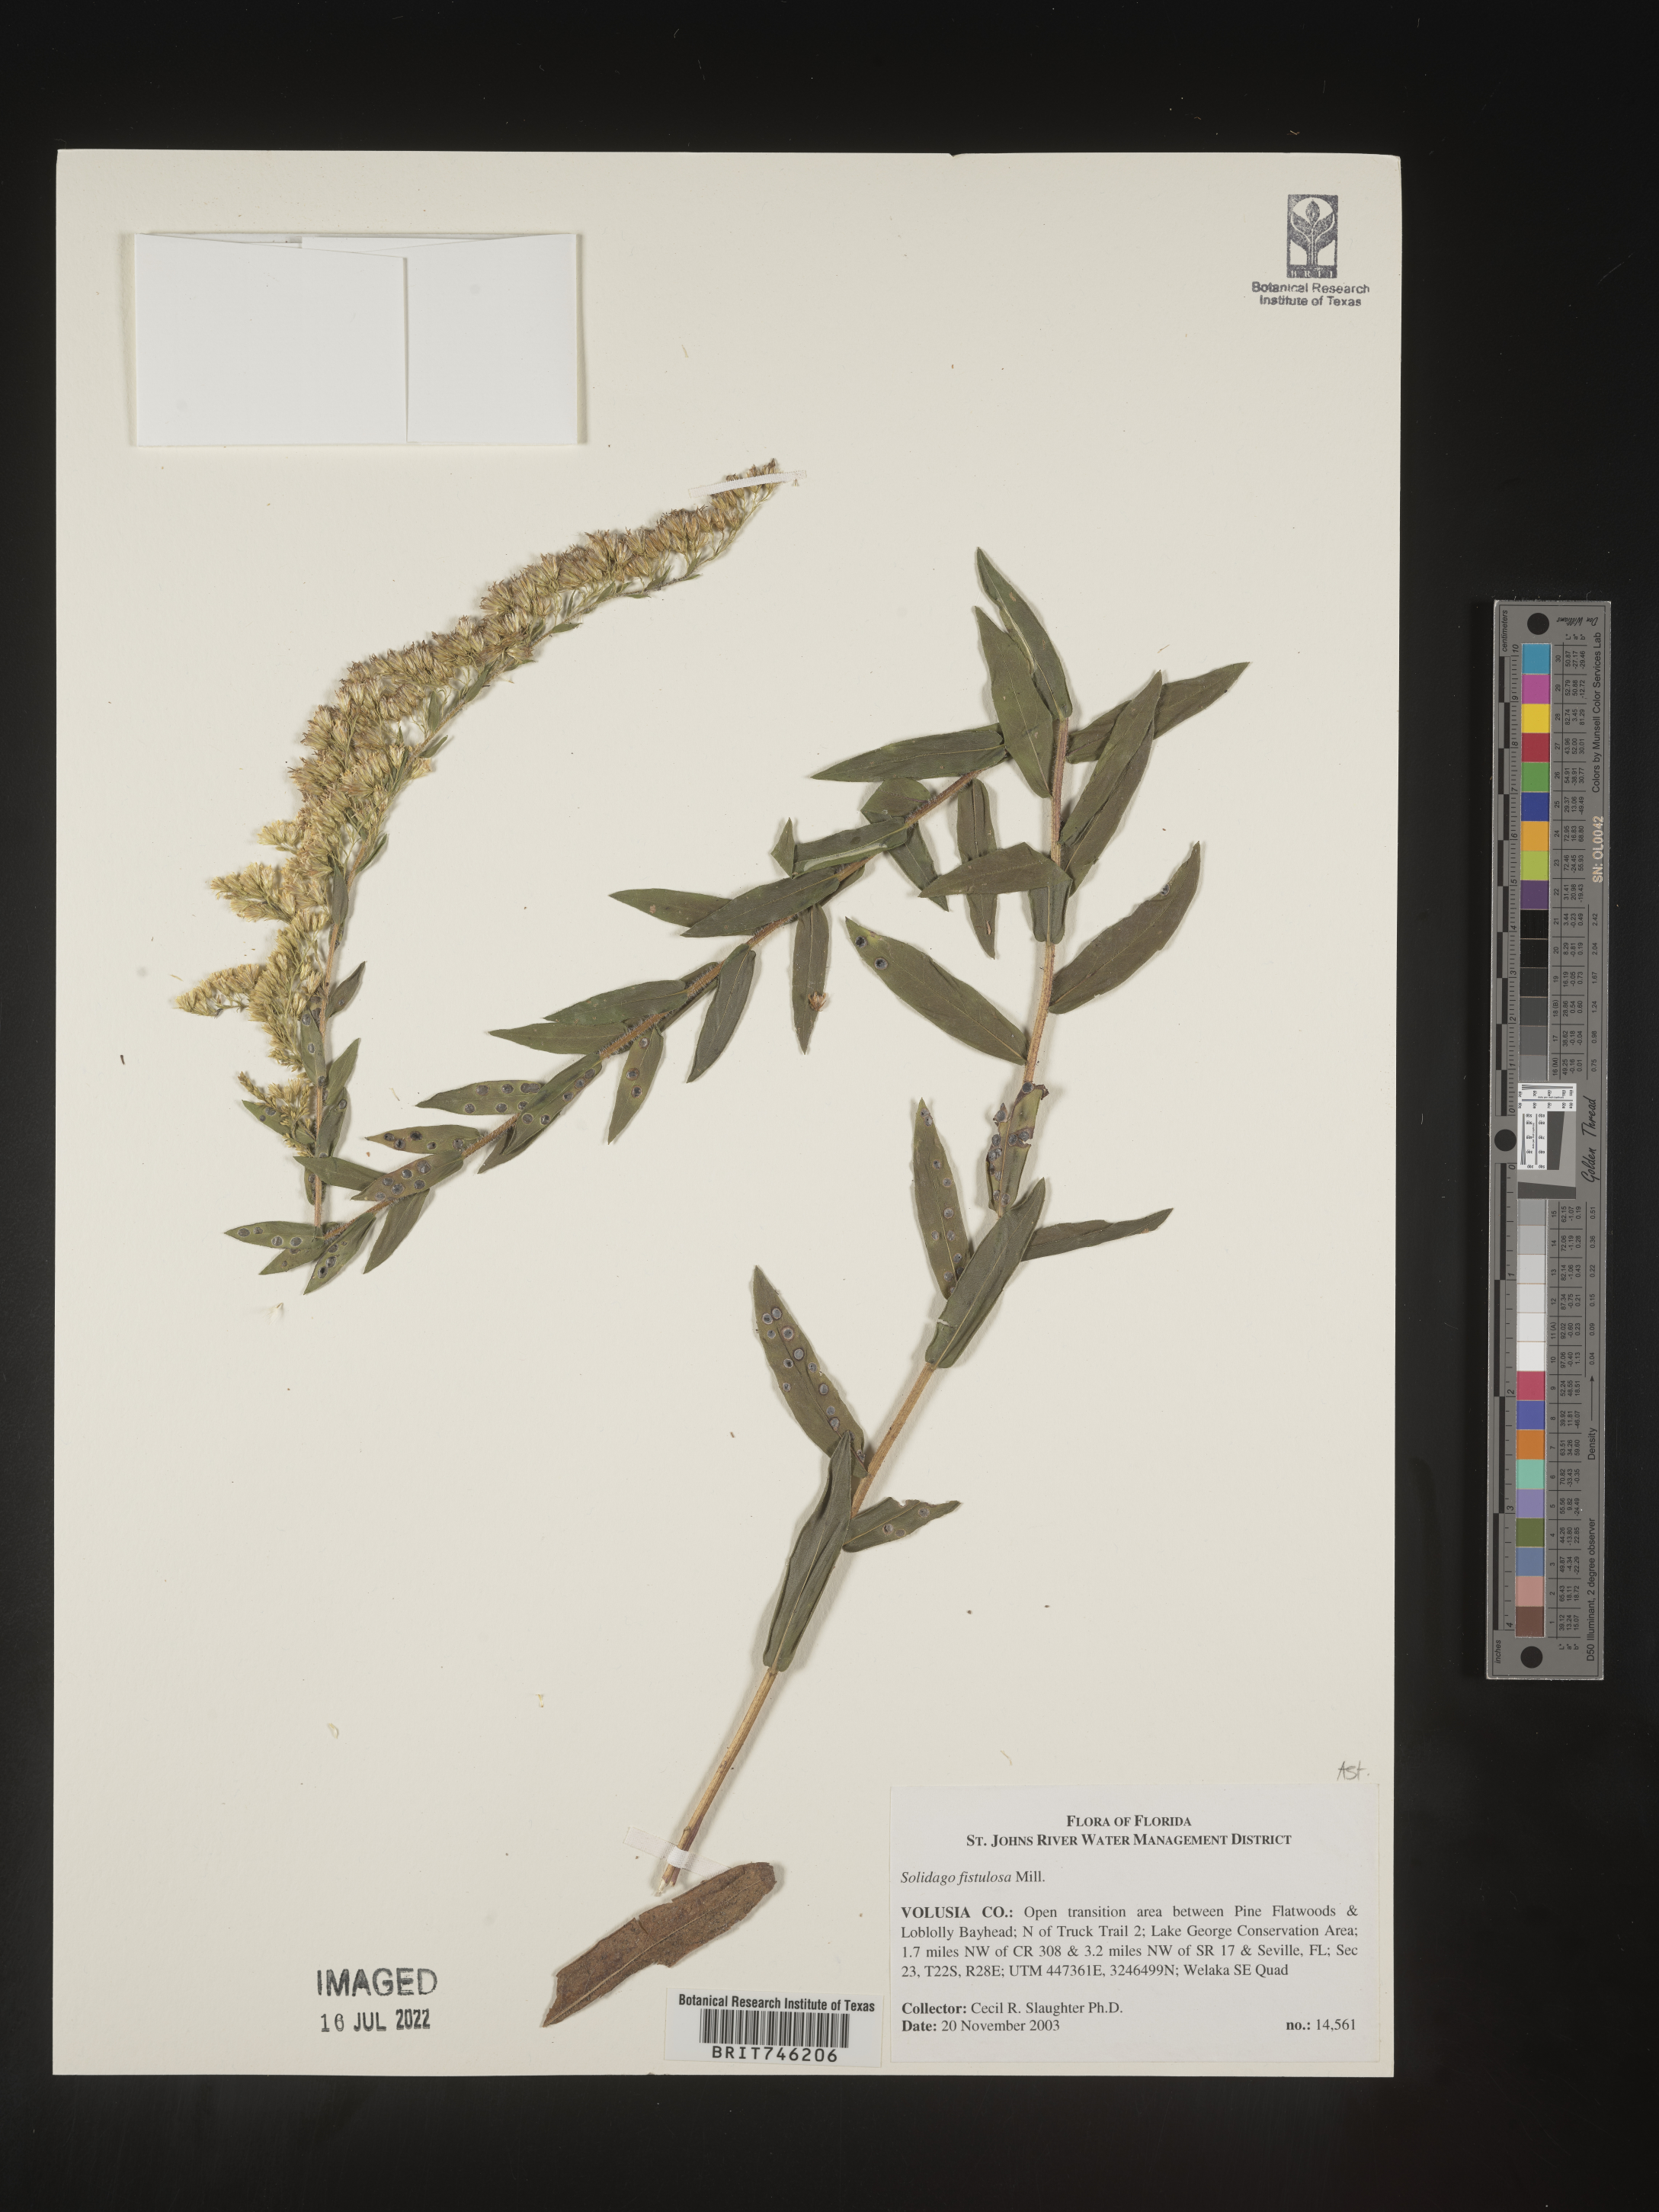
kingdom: Plantae
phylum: Tracheophyta
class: Magnoliopsida
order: Asterales
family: Asteraceae
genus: Solidago
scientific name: Solidago fistulosa
